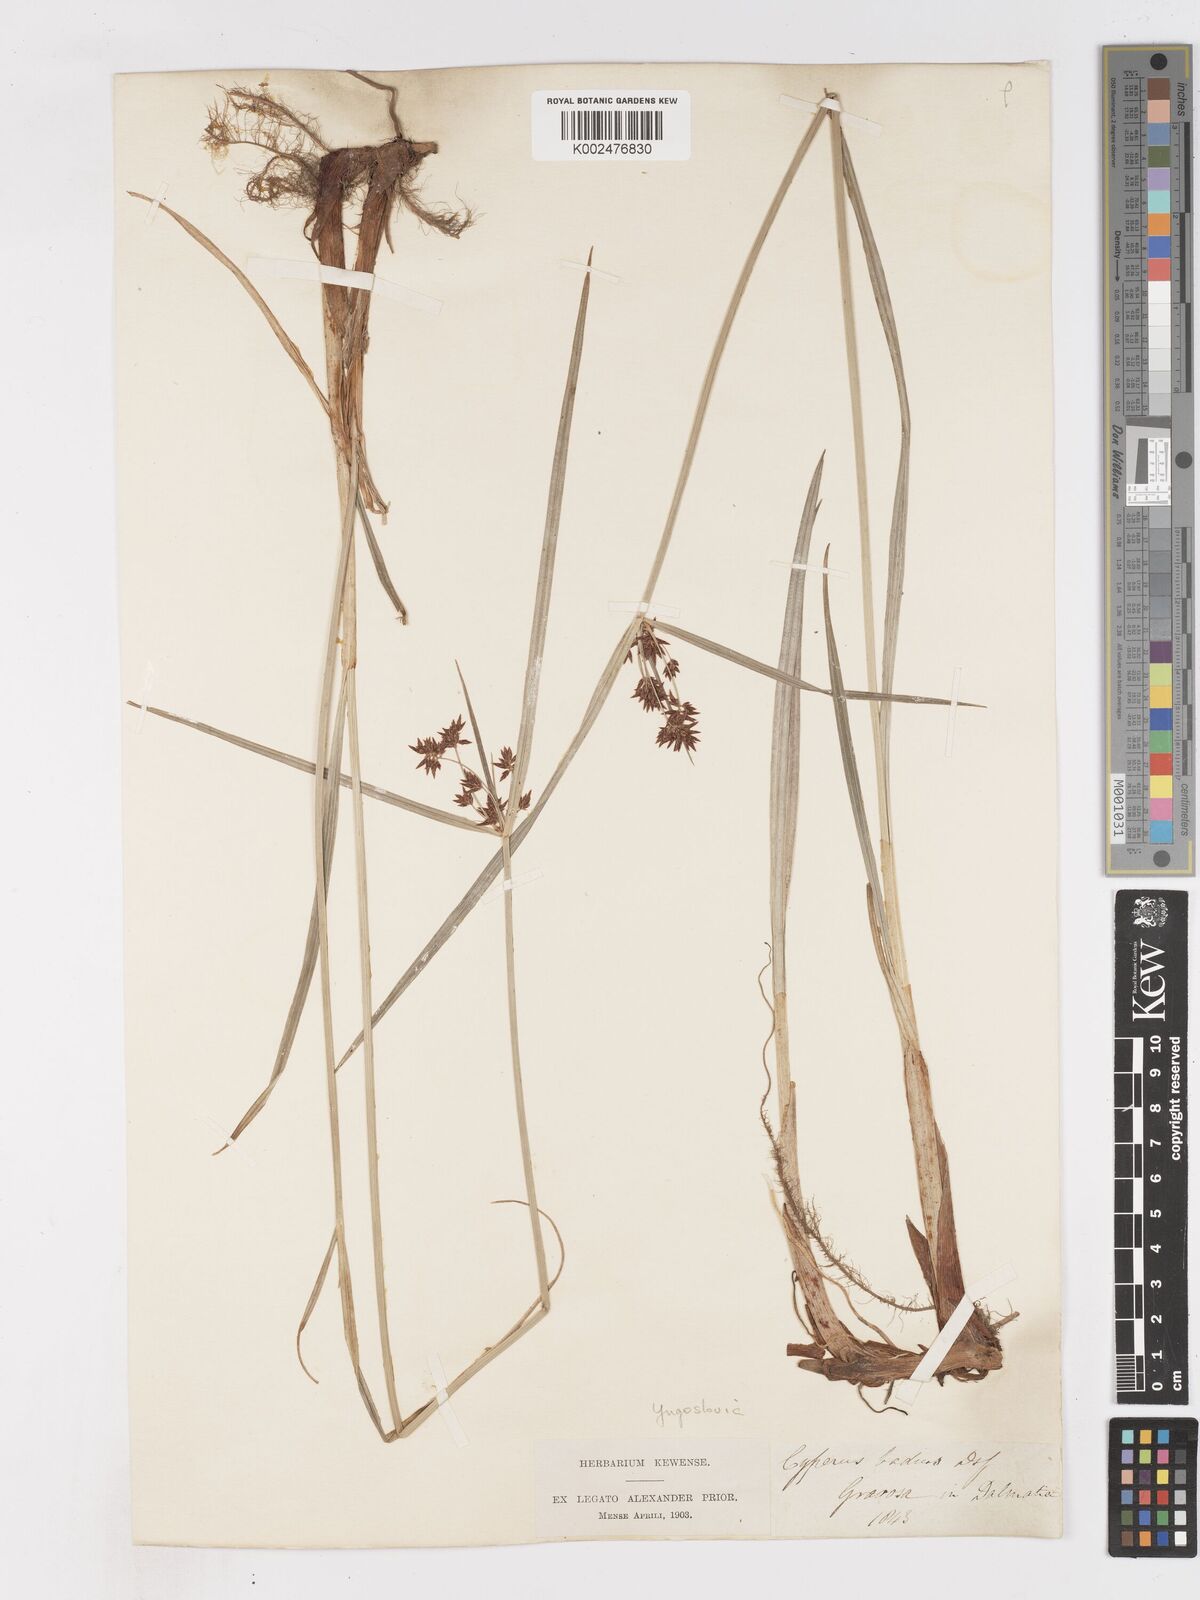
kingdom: Plantae
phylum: Tracheophyta
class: Liliopsida
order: Poales
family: Cyperaceae
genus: Cyperus
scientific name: Cyperus longus
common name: Galingale
